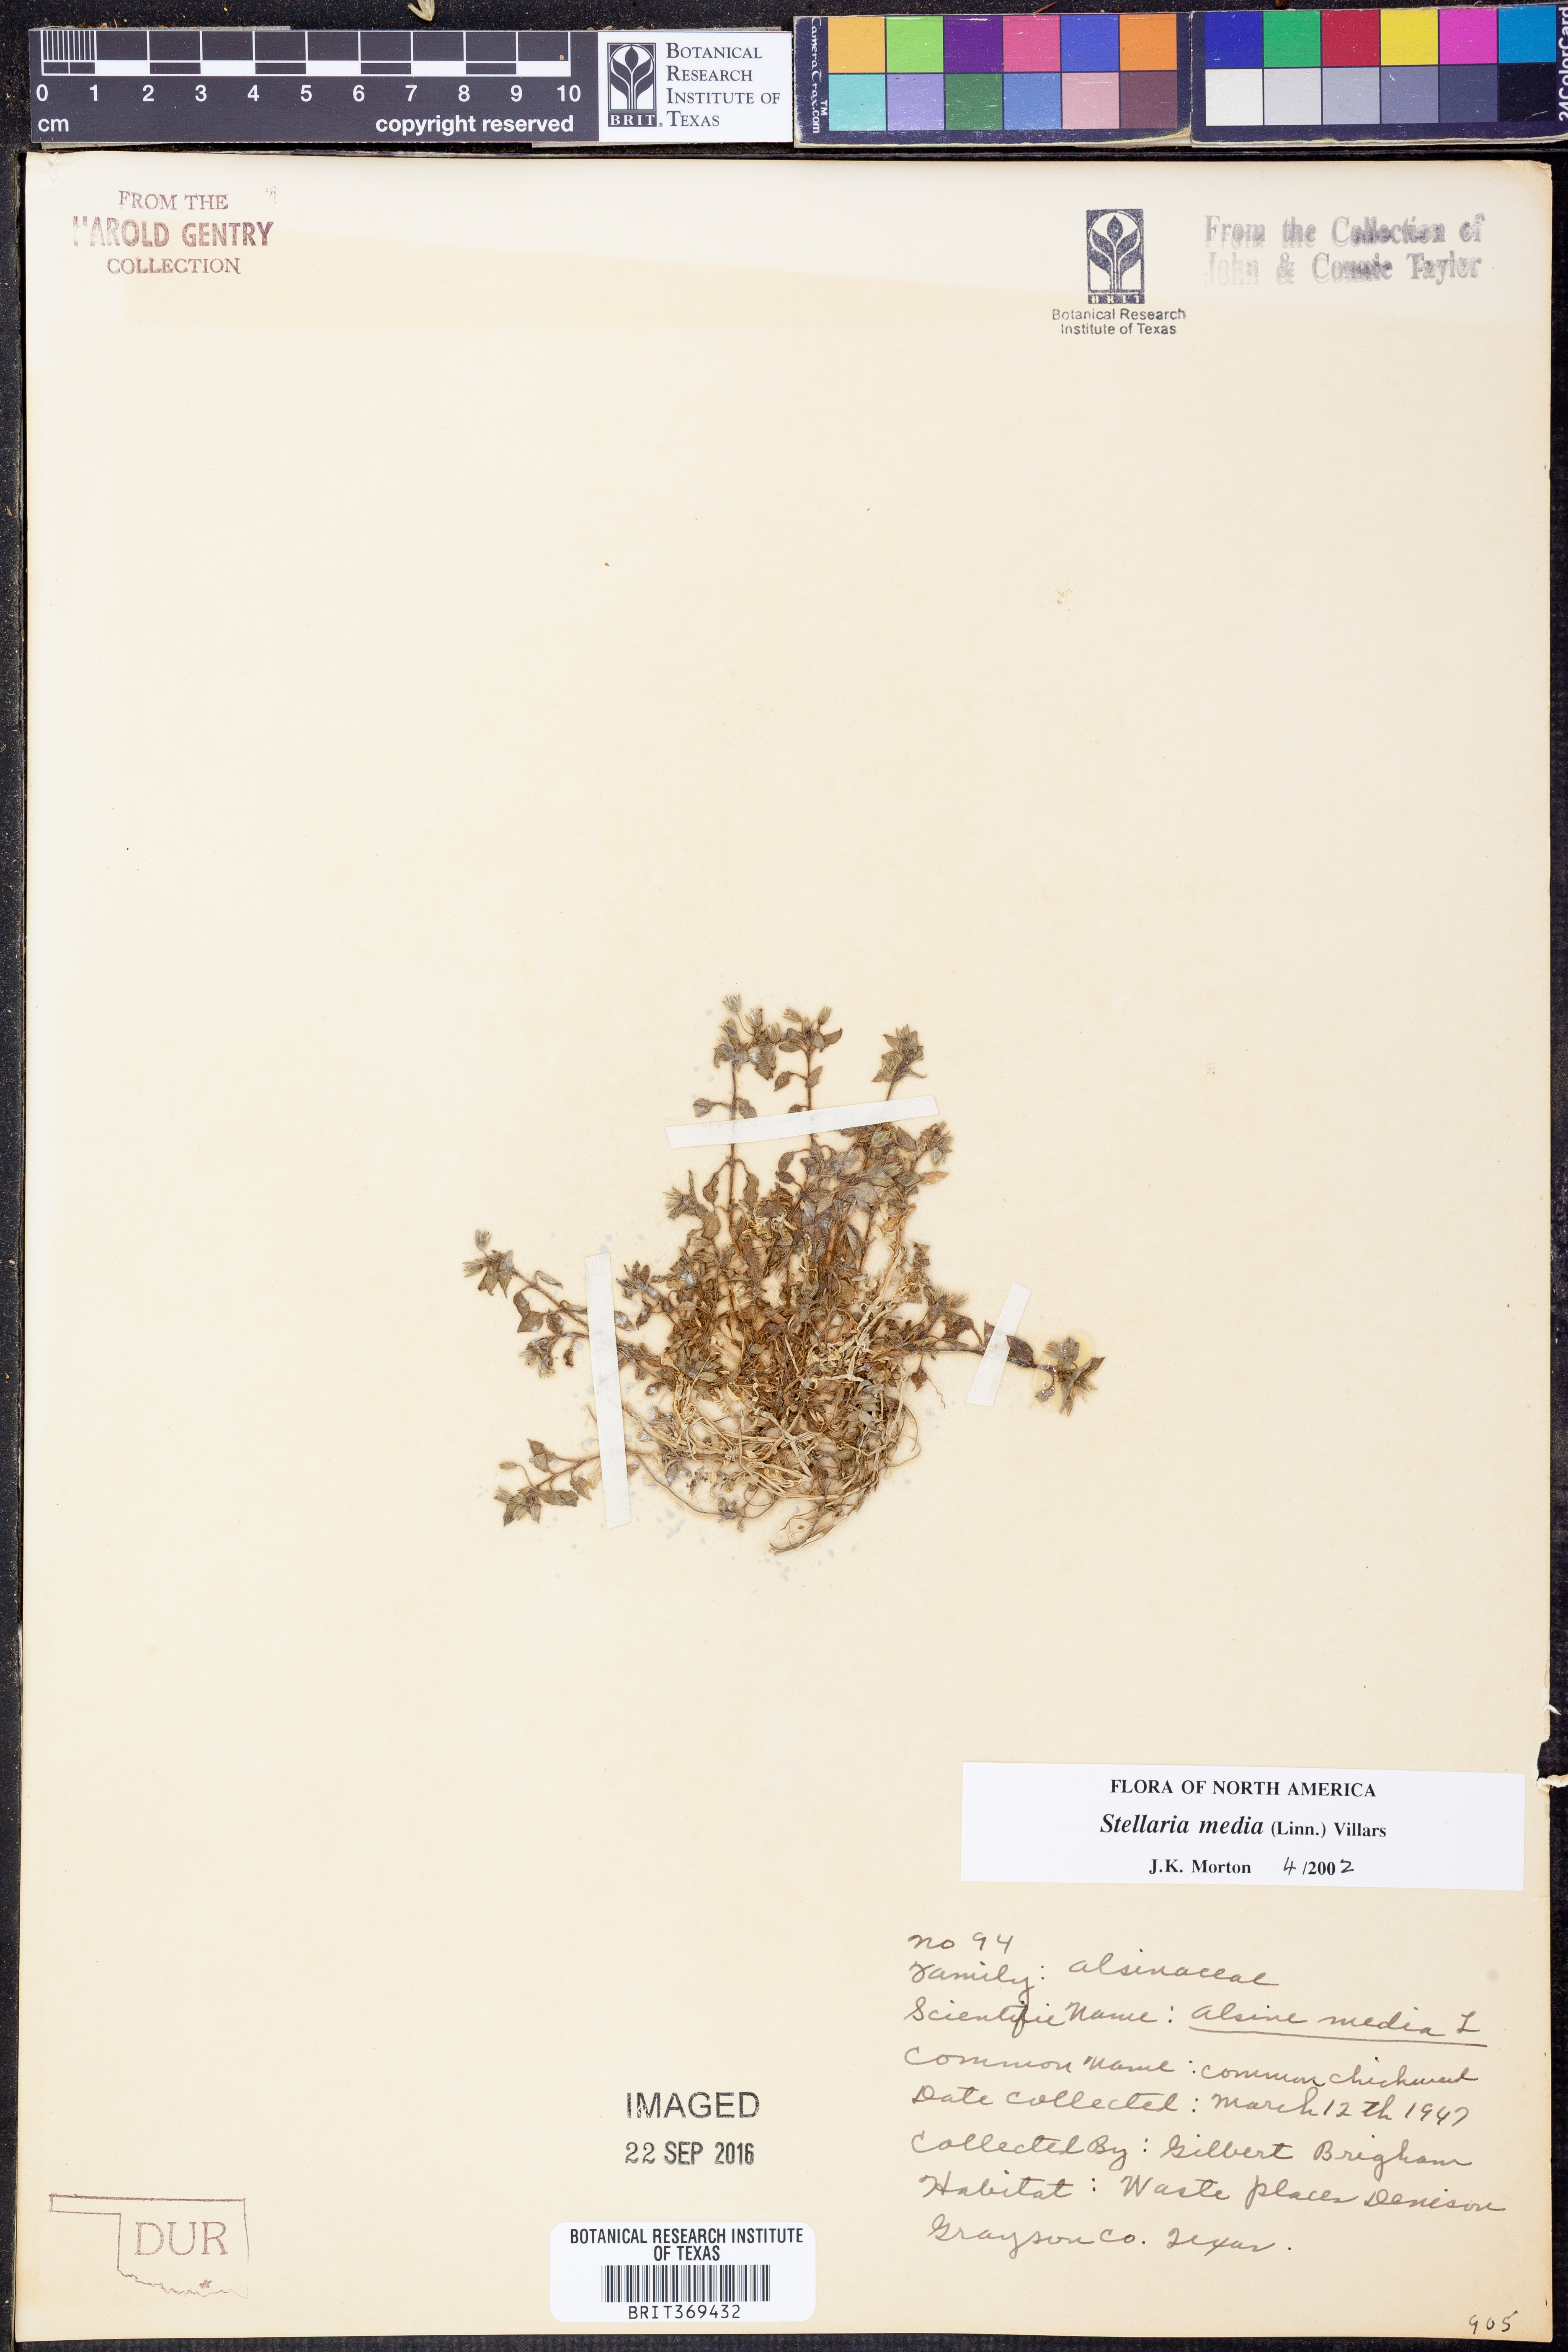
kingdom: Plantae
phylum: Tracheophyta
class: Magnoliopsida
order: Caryophyllales
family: Caryophyllaceae
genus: Stellaria
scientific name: Stellaria media
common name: Common chickweed
